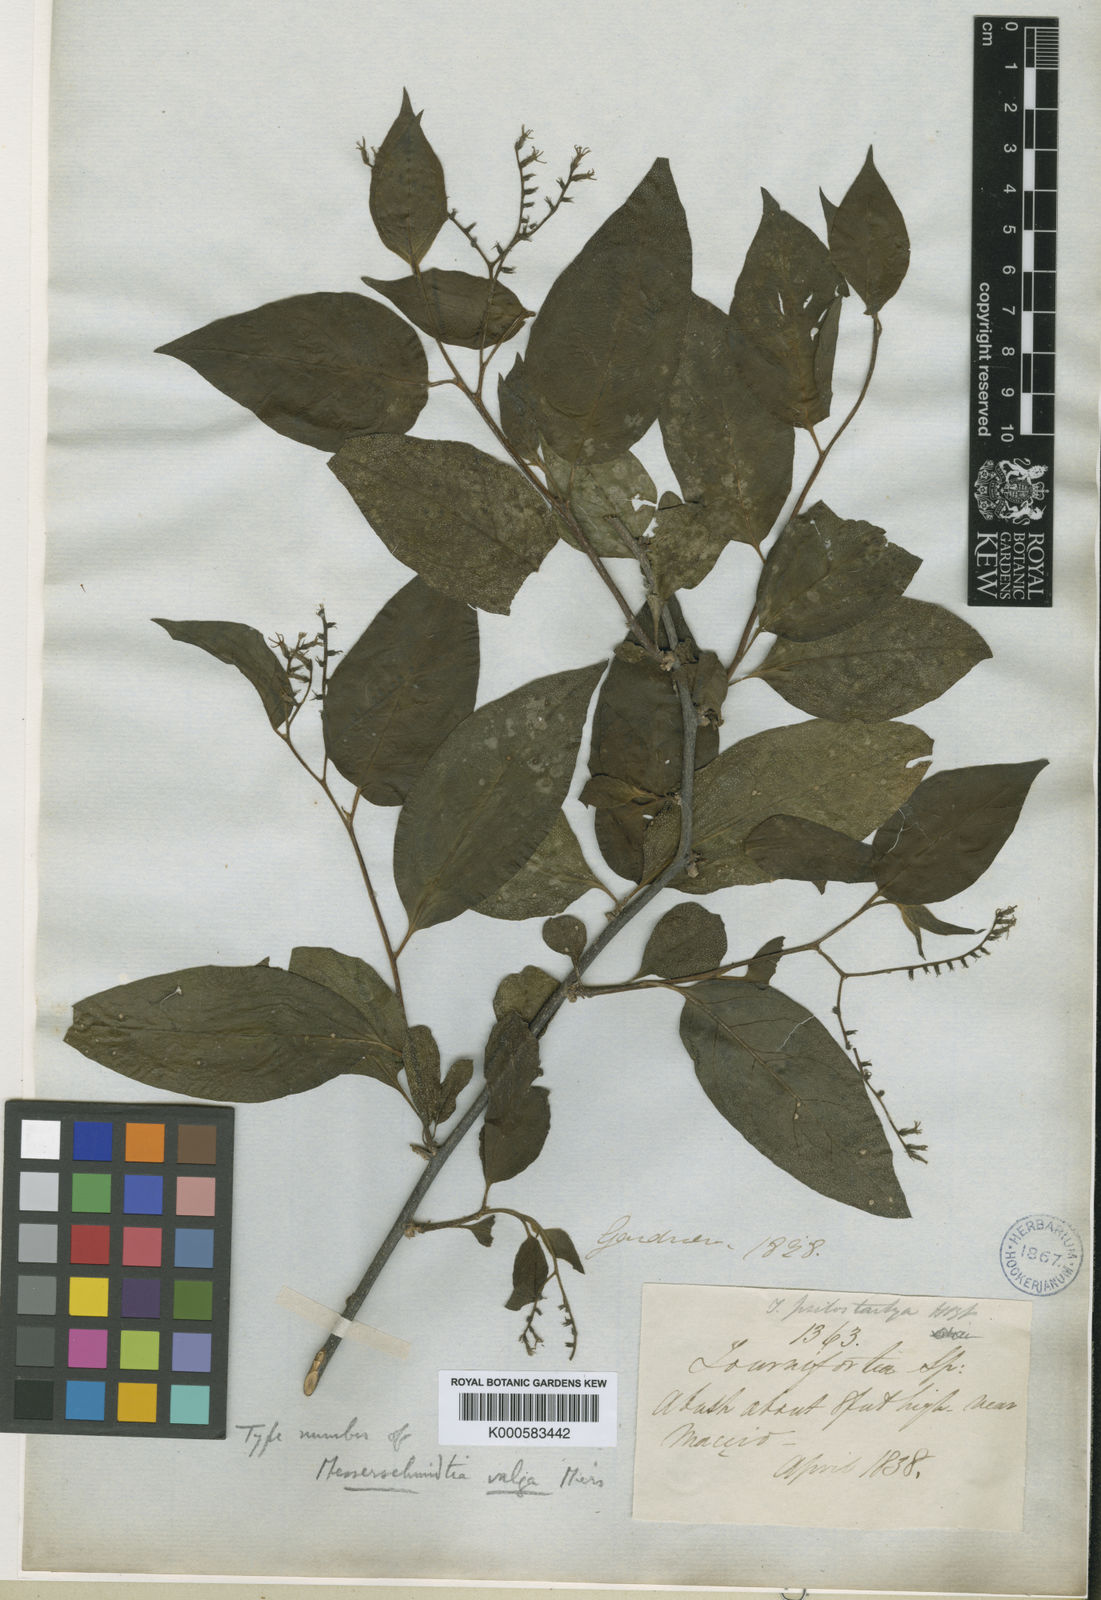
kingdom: Plantae
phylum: Tracheophyta
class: Magnoliopsida
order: Boraginales
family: Heliotropiaceae
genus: Myriopus
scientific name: Myriopus rubicundus
